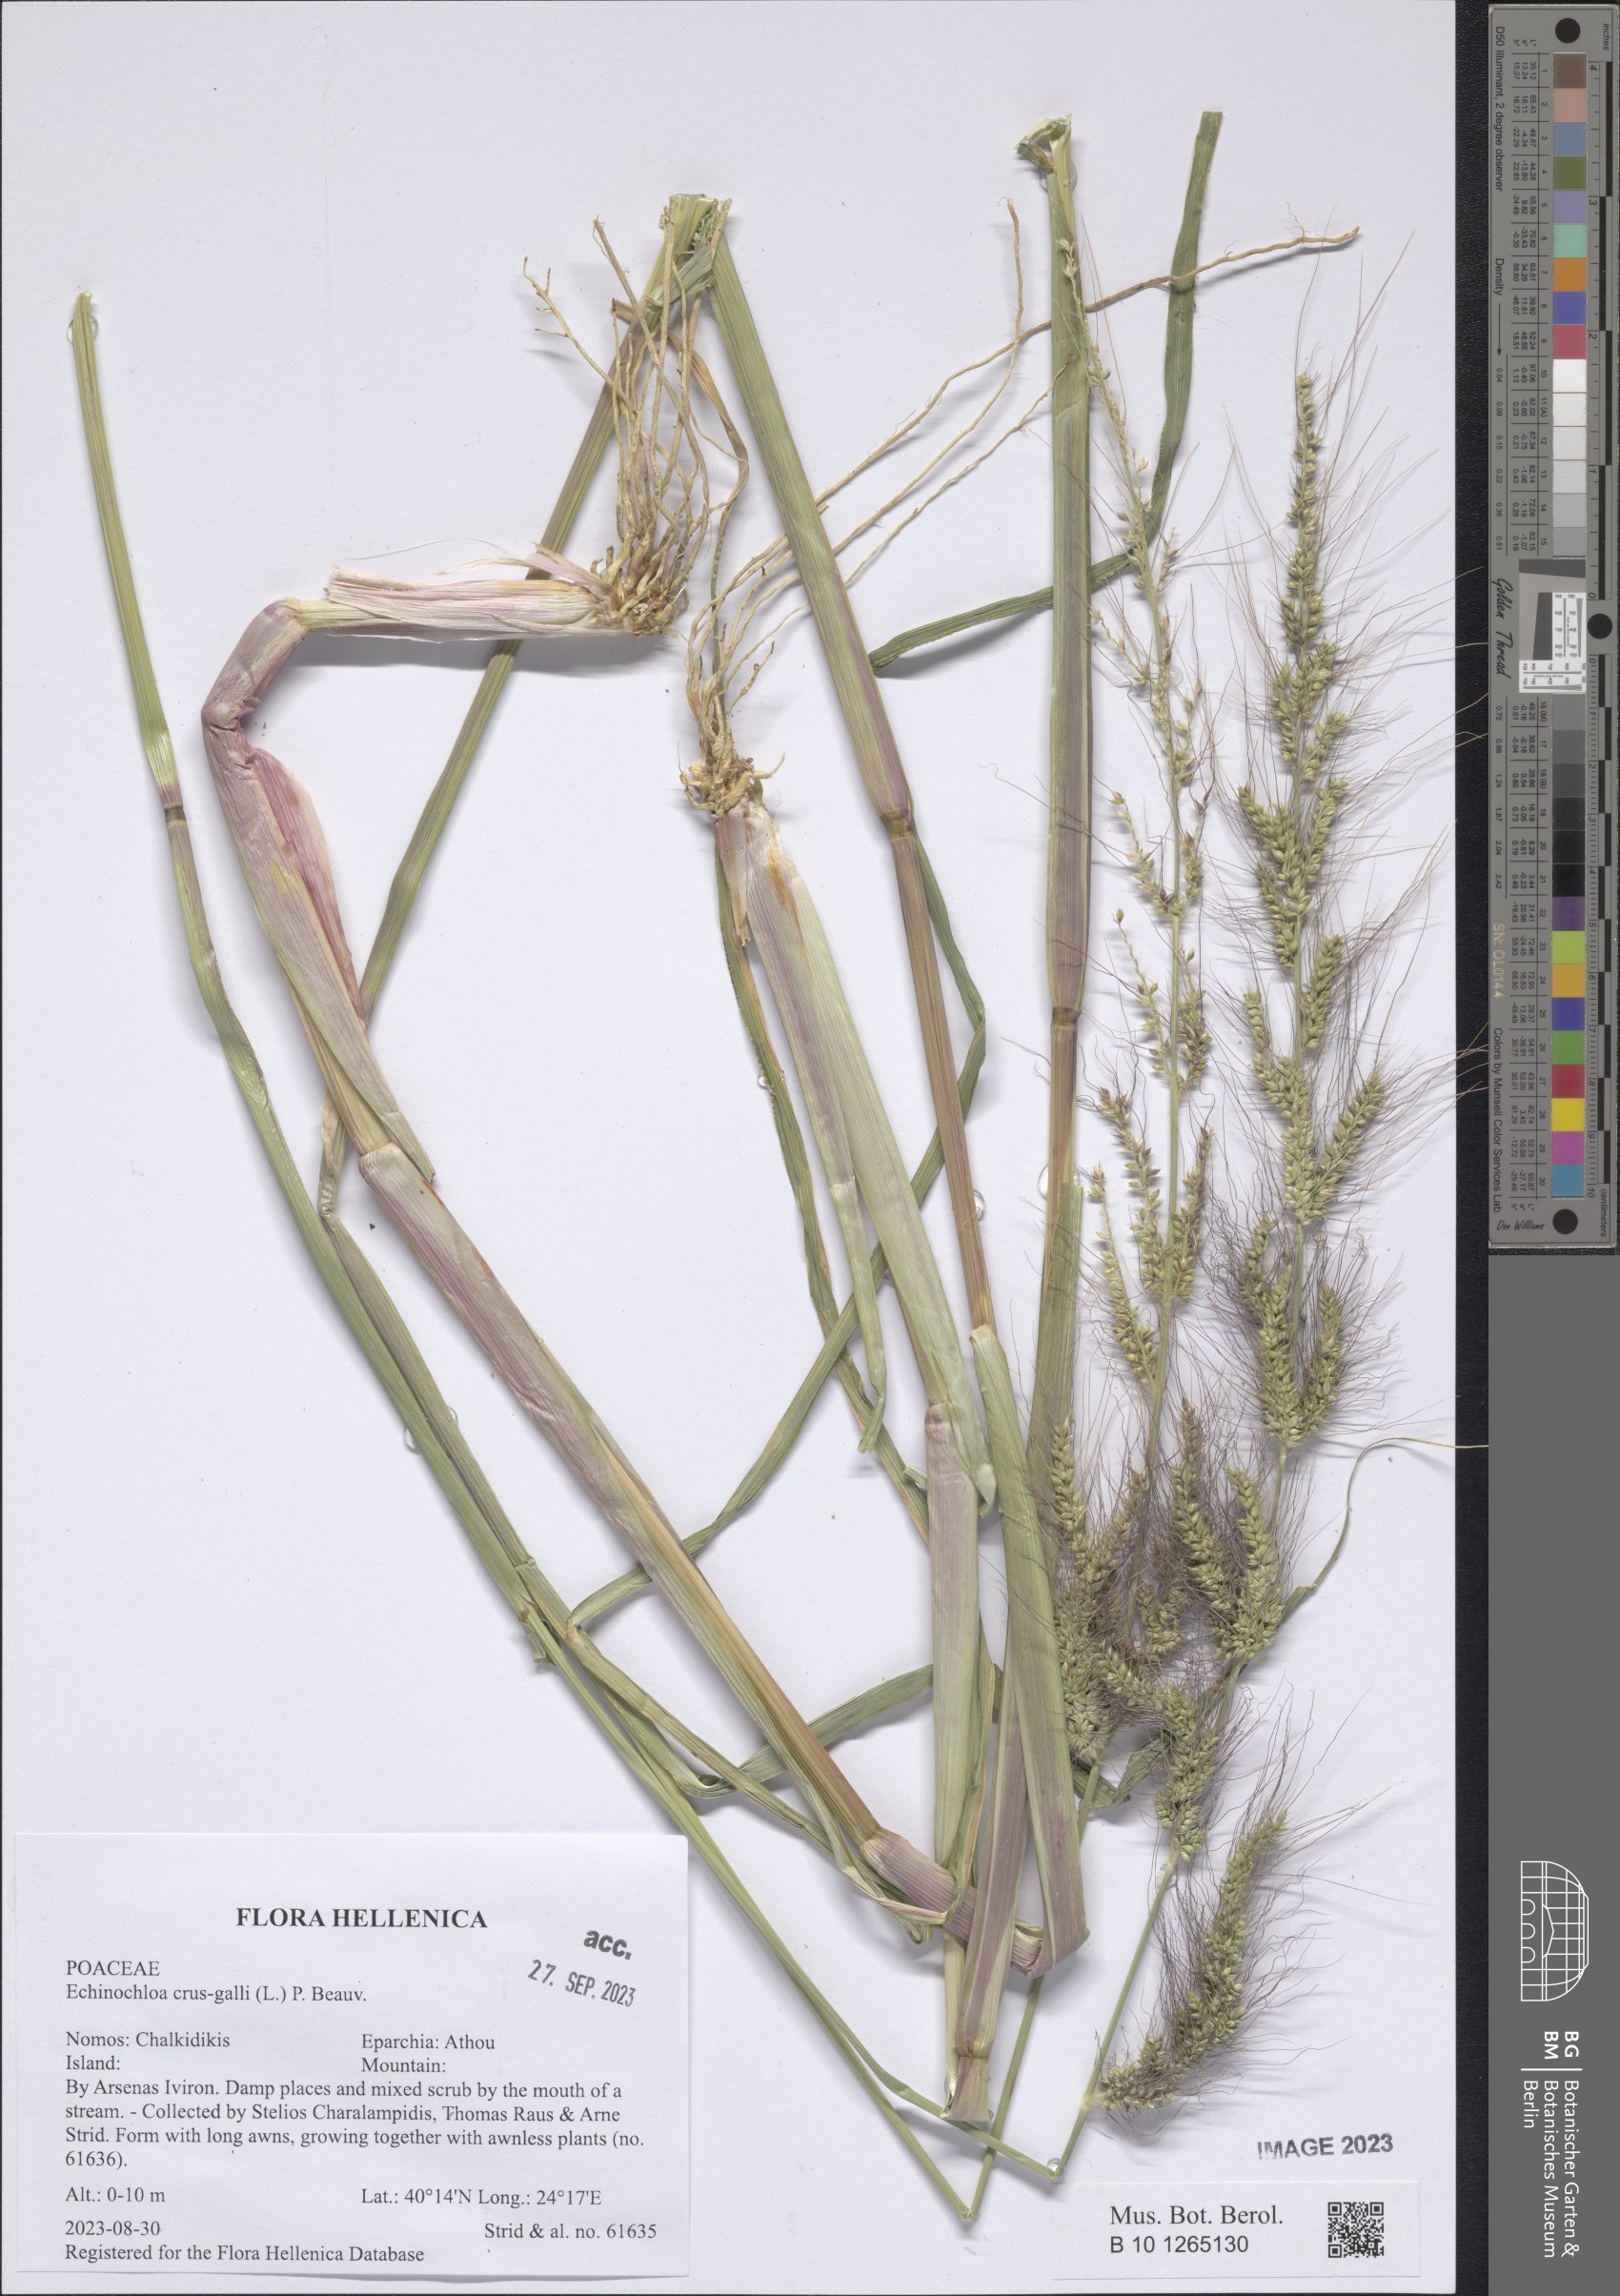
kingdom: Plantae
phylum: Tracheophyta
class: Liliopsida
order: Poales
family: Poaceae
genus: Echinochloa
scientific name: Echinochloa crus-galli
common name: Cockspur
